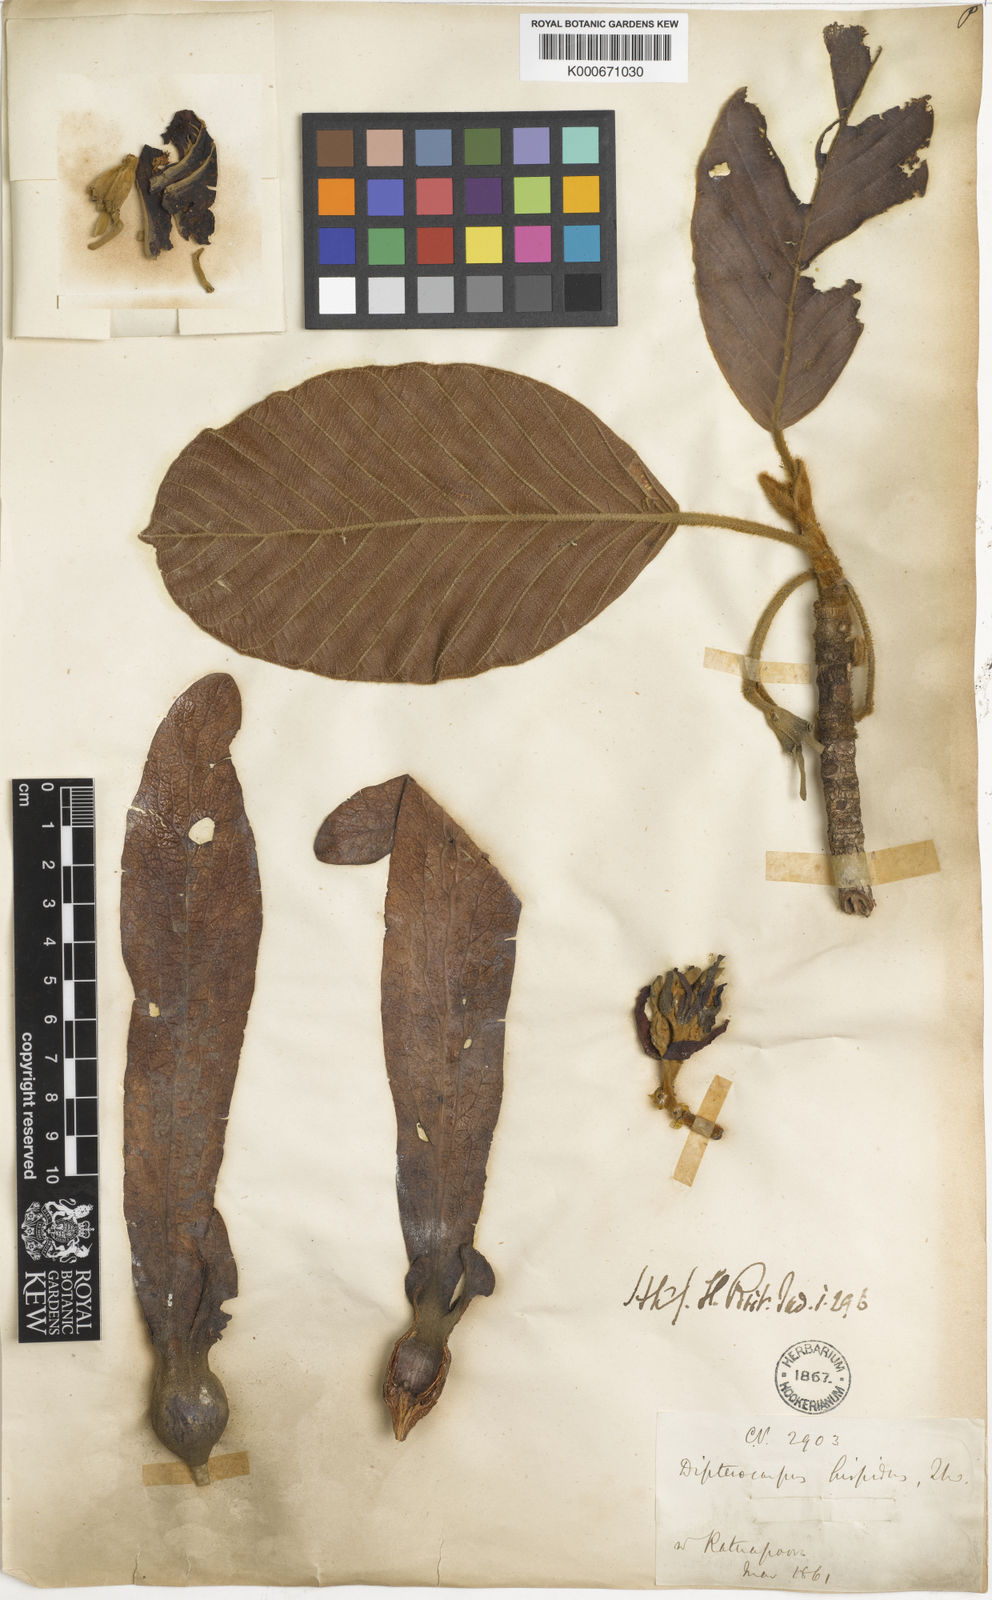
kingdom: Plantae
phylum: Tracheophyta
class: Magnoliopsida
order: Malvales
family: Dipterocarpaceae
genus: Dipterocarpus
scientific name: Dipterocarpus hispidus
